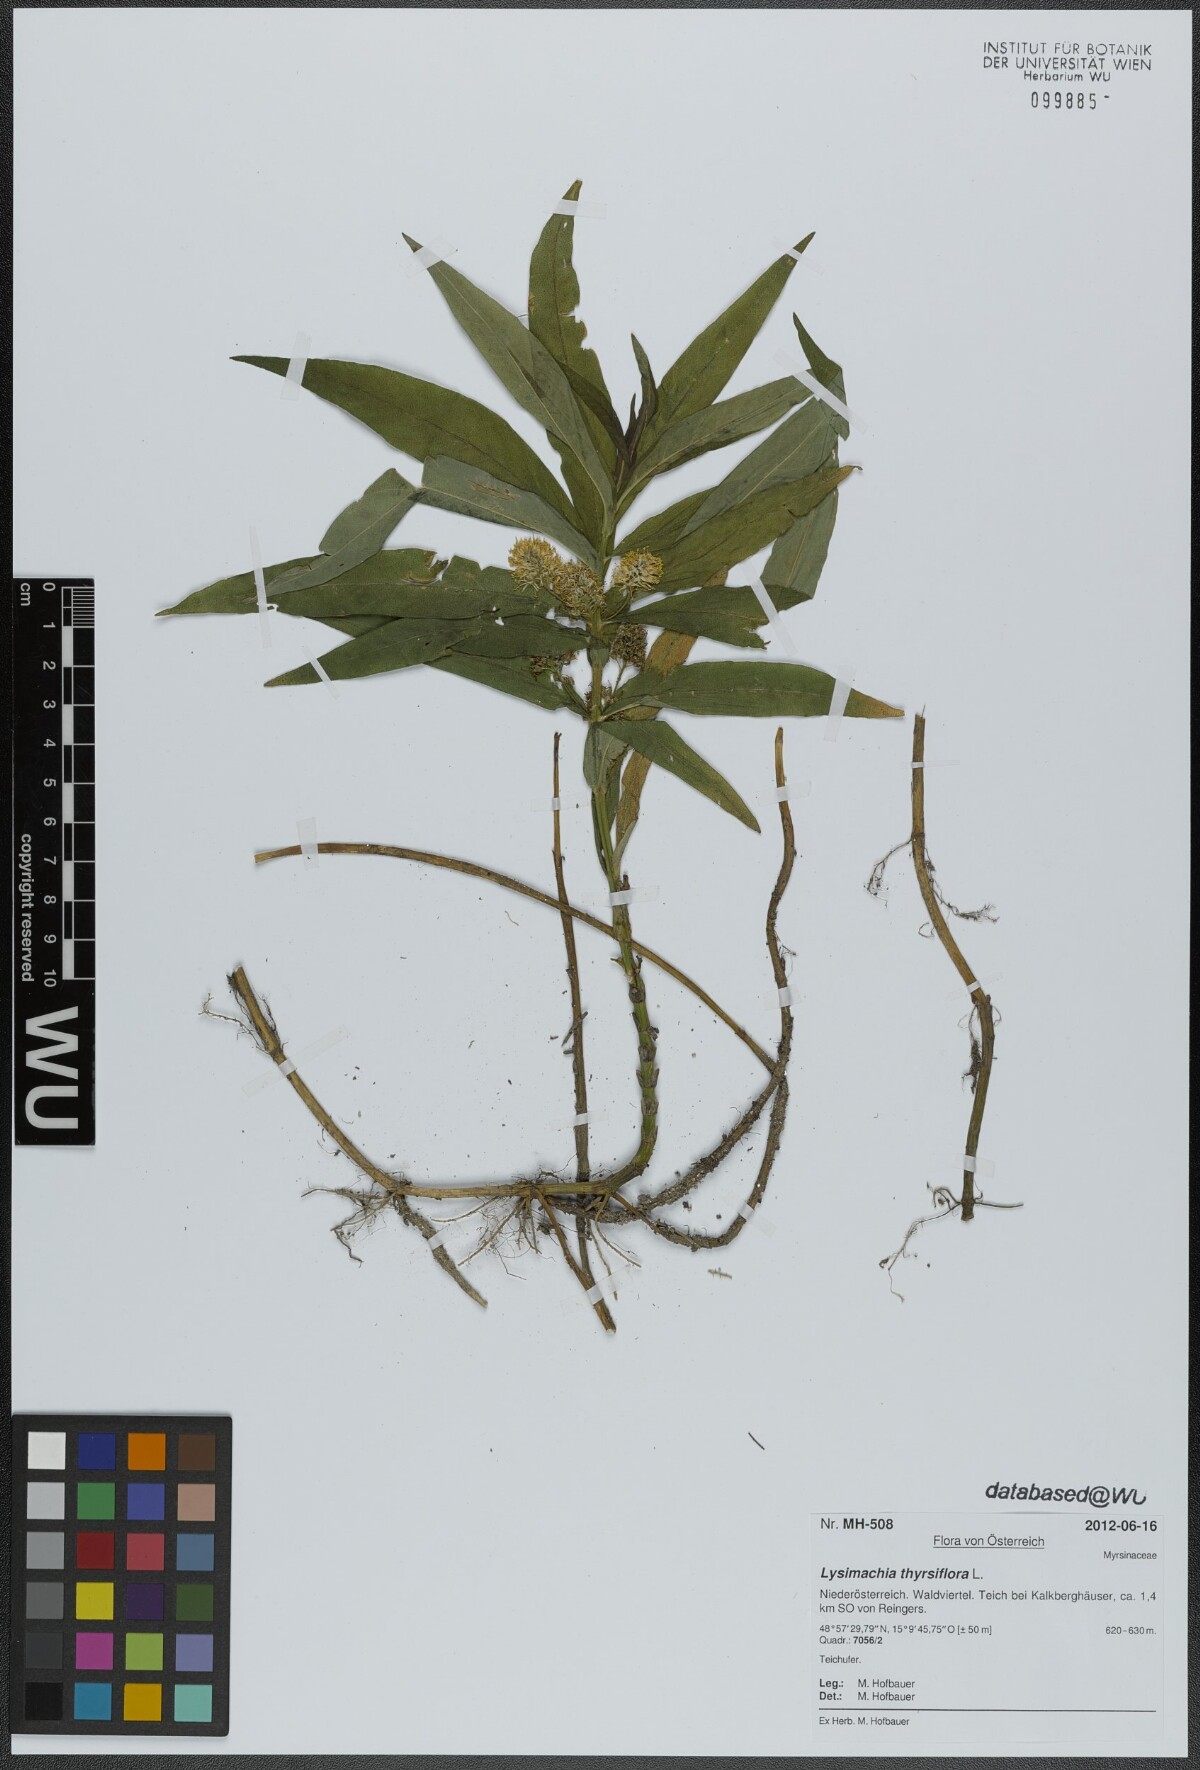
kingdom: Plantae
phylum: Tracheophyta
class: Magnoliopsida
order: Ericales
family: Primulaceae
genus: Lysimachia
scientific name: Lysimachia thyrsiflora
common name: Tufted loosestrife
